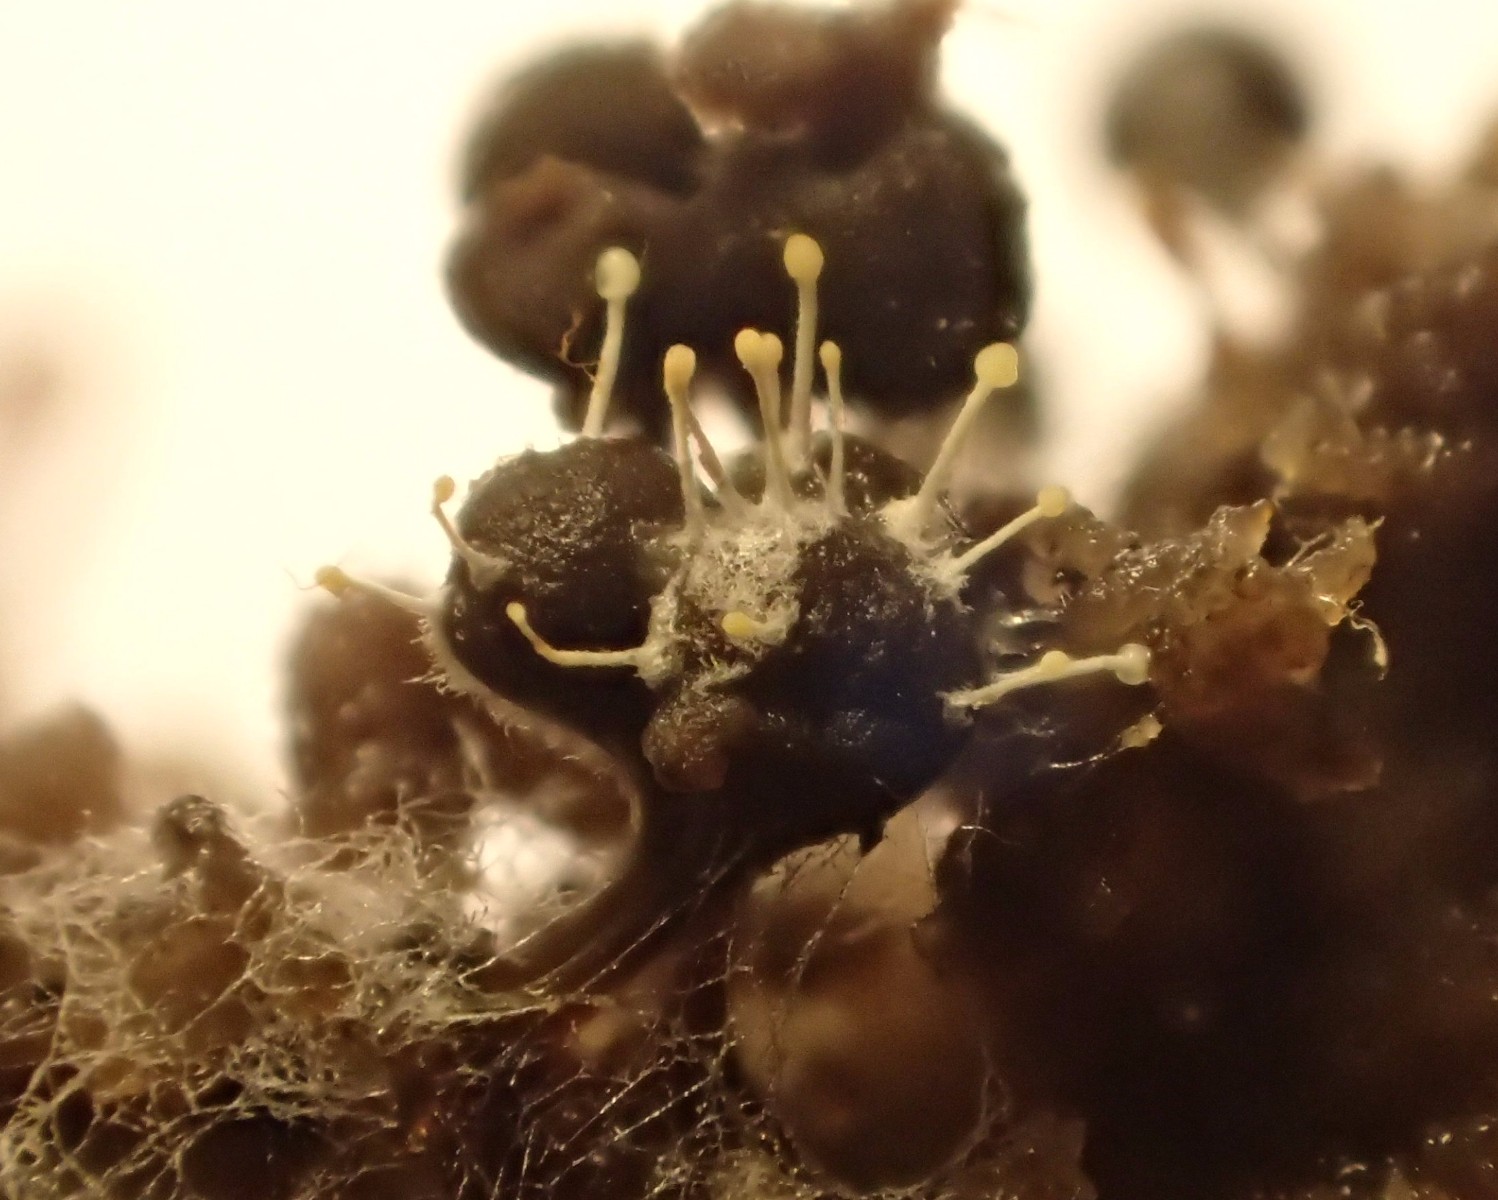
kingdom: Fungi
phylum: Ascomycota
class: Sordariomycetes
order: Hypocreales
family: Ophiocordycipitaceae
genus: Polycephalomyces
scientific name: Polycephalomyces tomentosus
